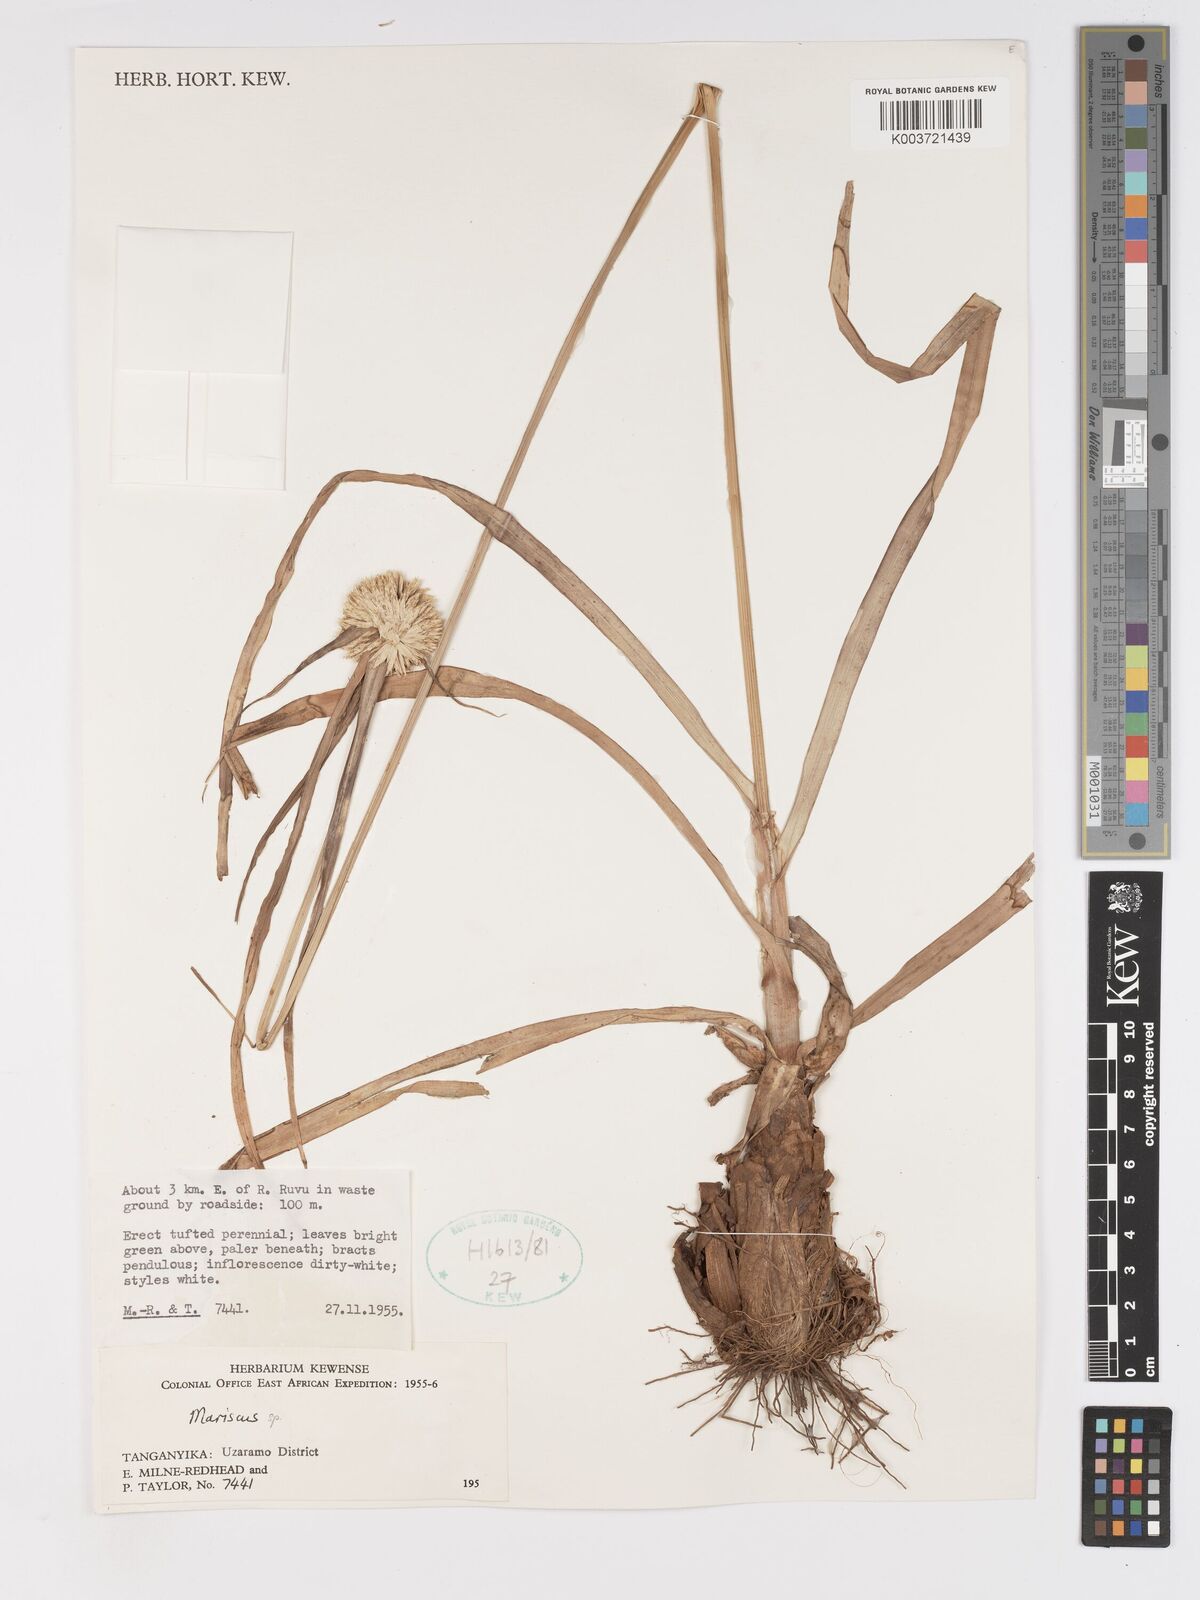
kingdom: Plantae
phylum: Tracheophyta
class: Liliopsida
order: Poales
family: Cyperaceae
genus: Cyperus
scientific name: Cyperus mollipes
